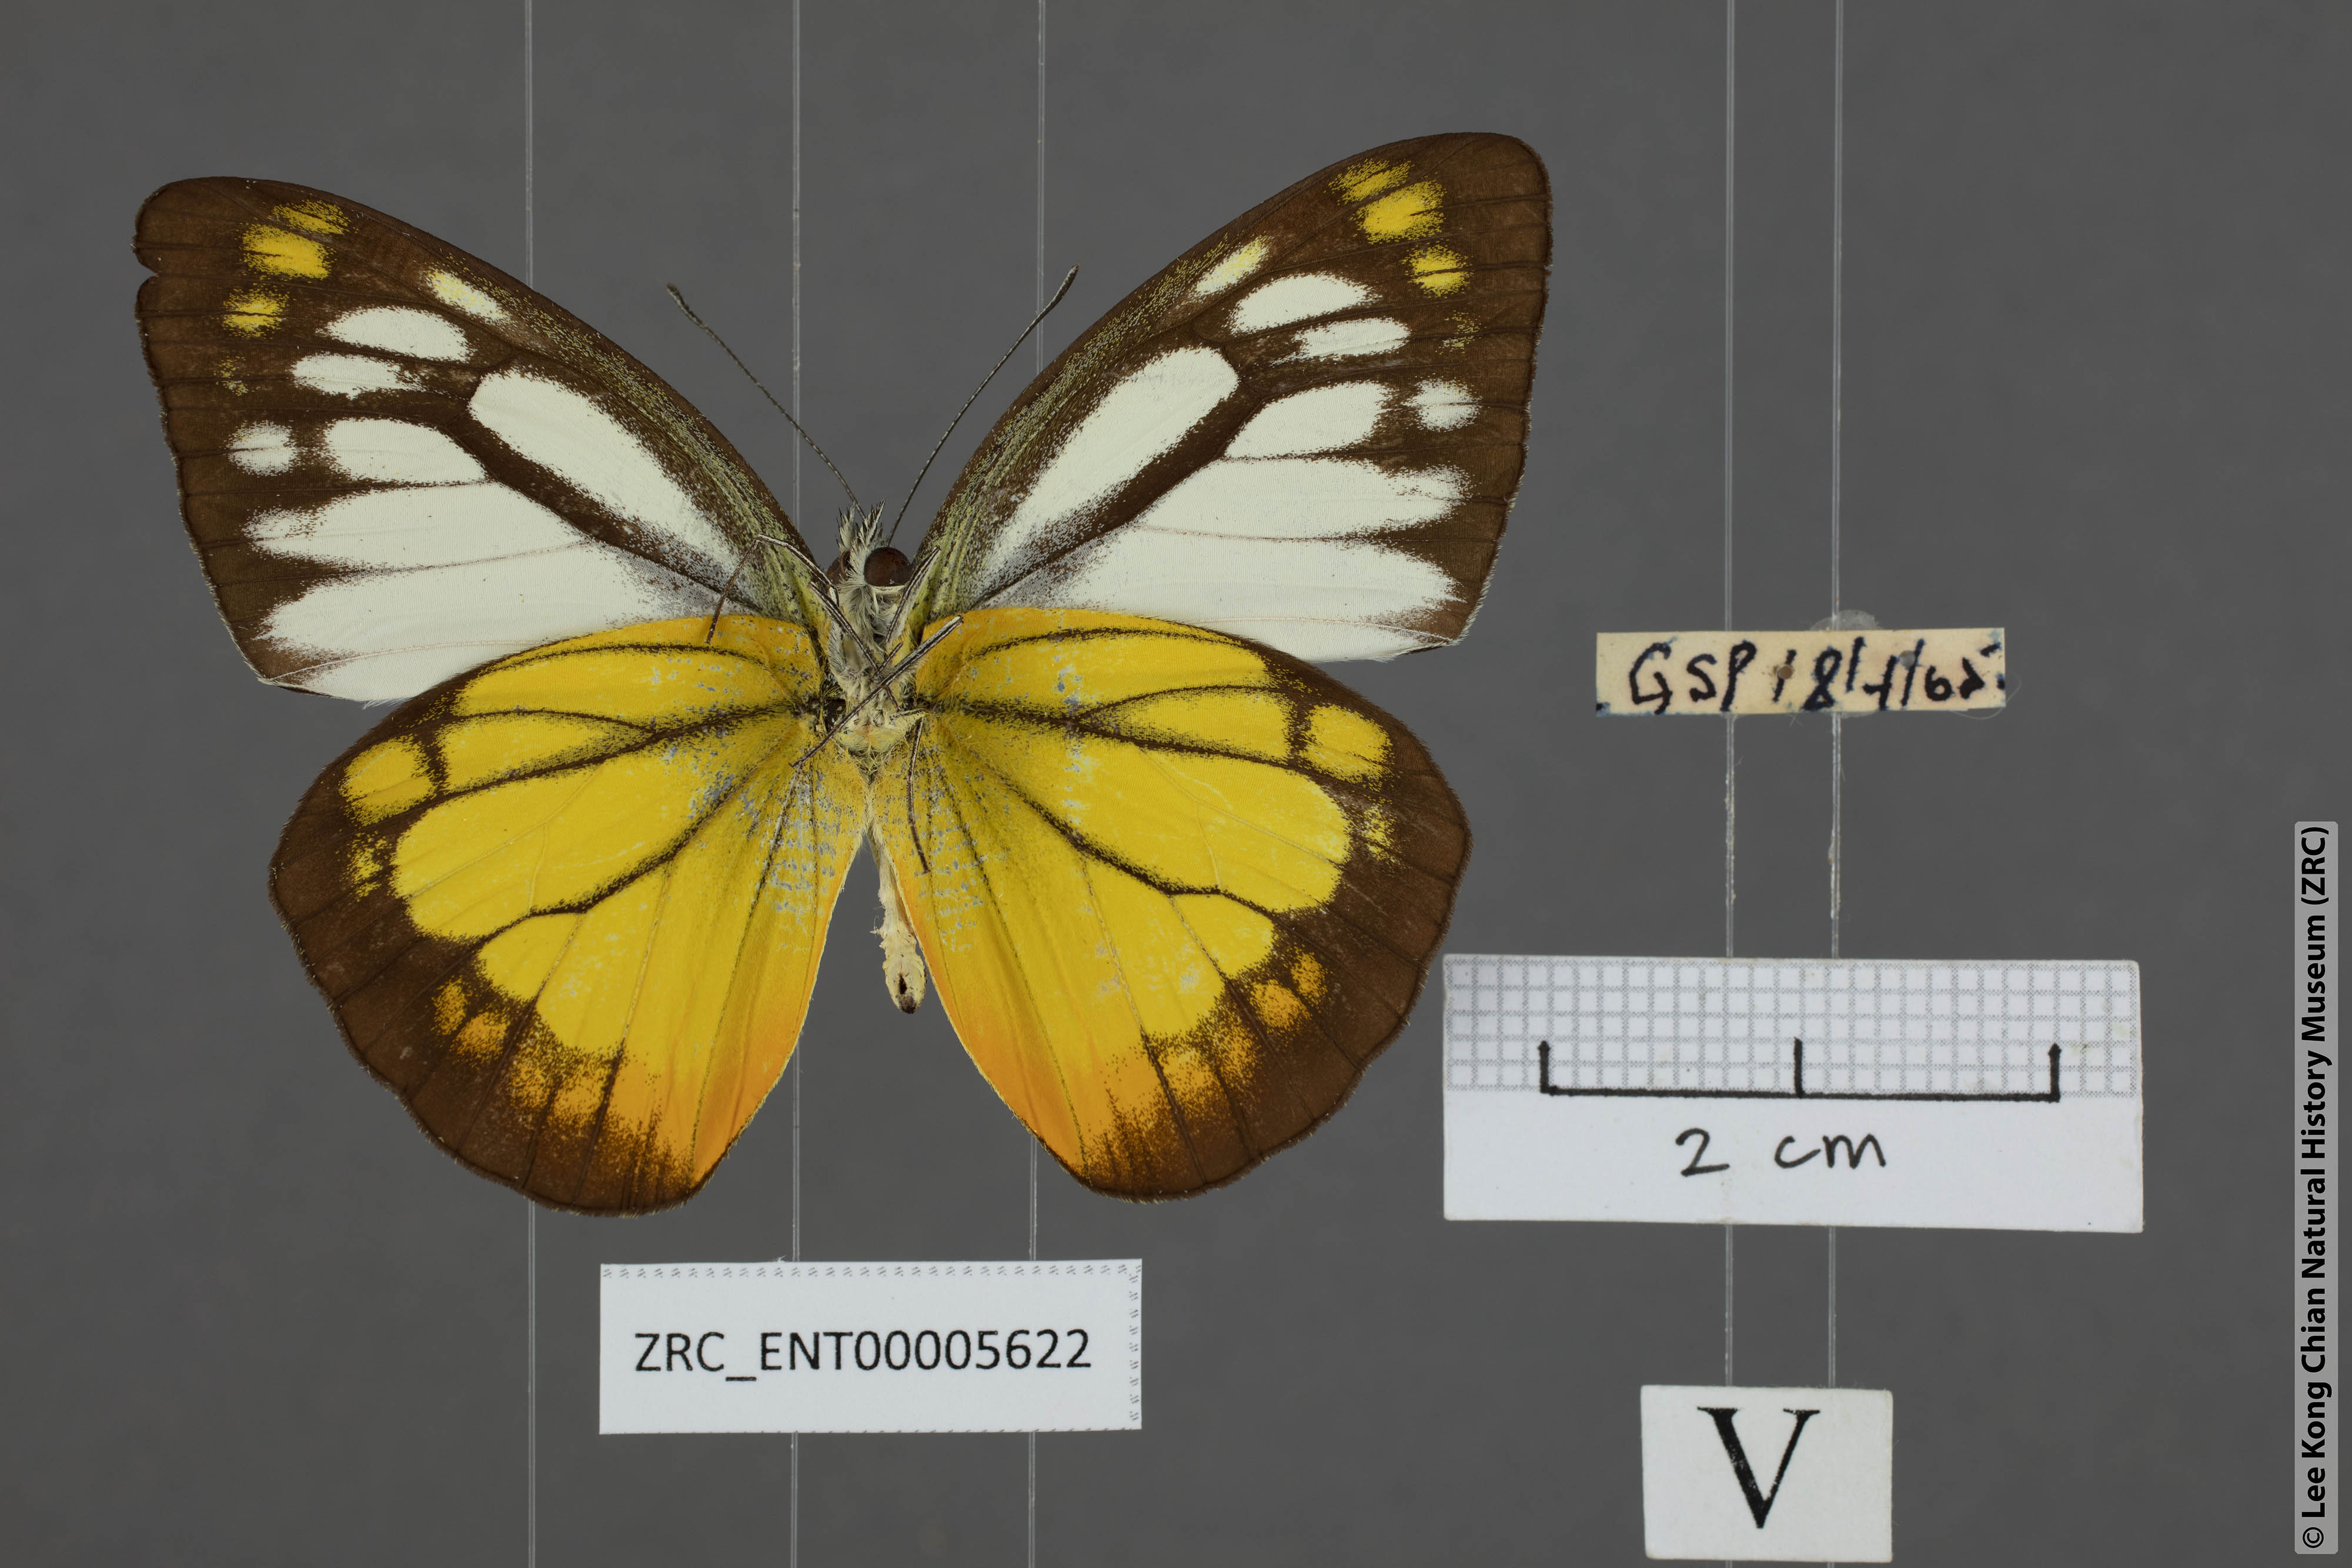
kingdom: Animalia
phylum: Arthropoda
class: Insecta
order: Lepidoptera
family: Pieridae
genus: Cepora
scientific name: Cepora iudith
